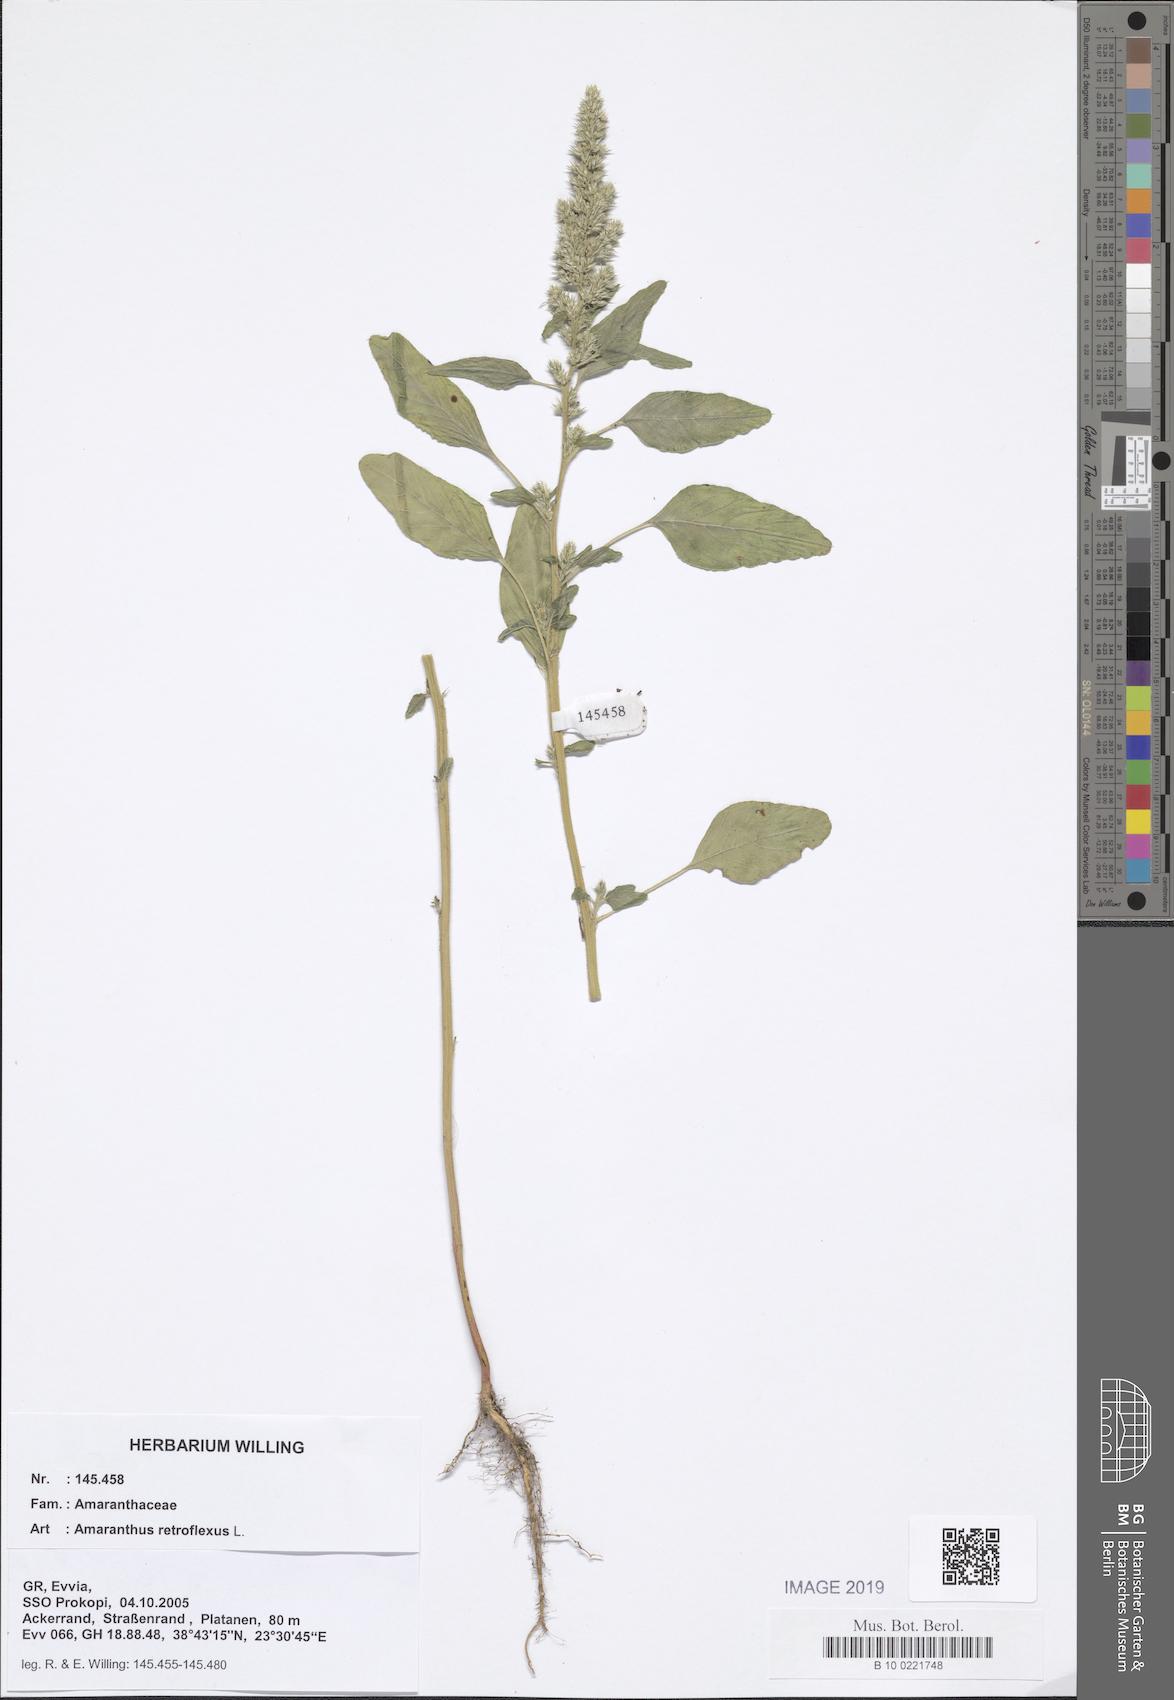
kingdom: Plantae
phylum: Tracheophyta
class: Magnoliopsida
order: Caryophyllales
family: Amaranthaceae
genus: Amaranthus
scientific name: Amaranthus retroflexus
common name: Redroot amaranth
